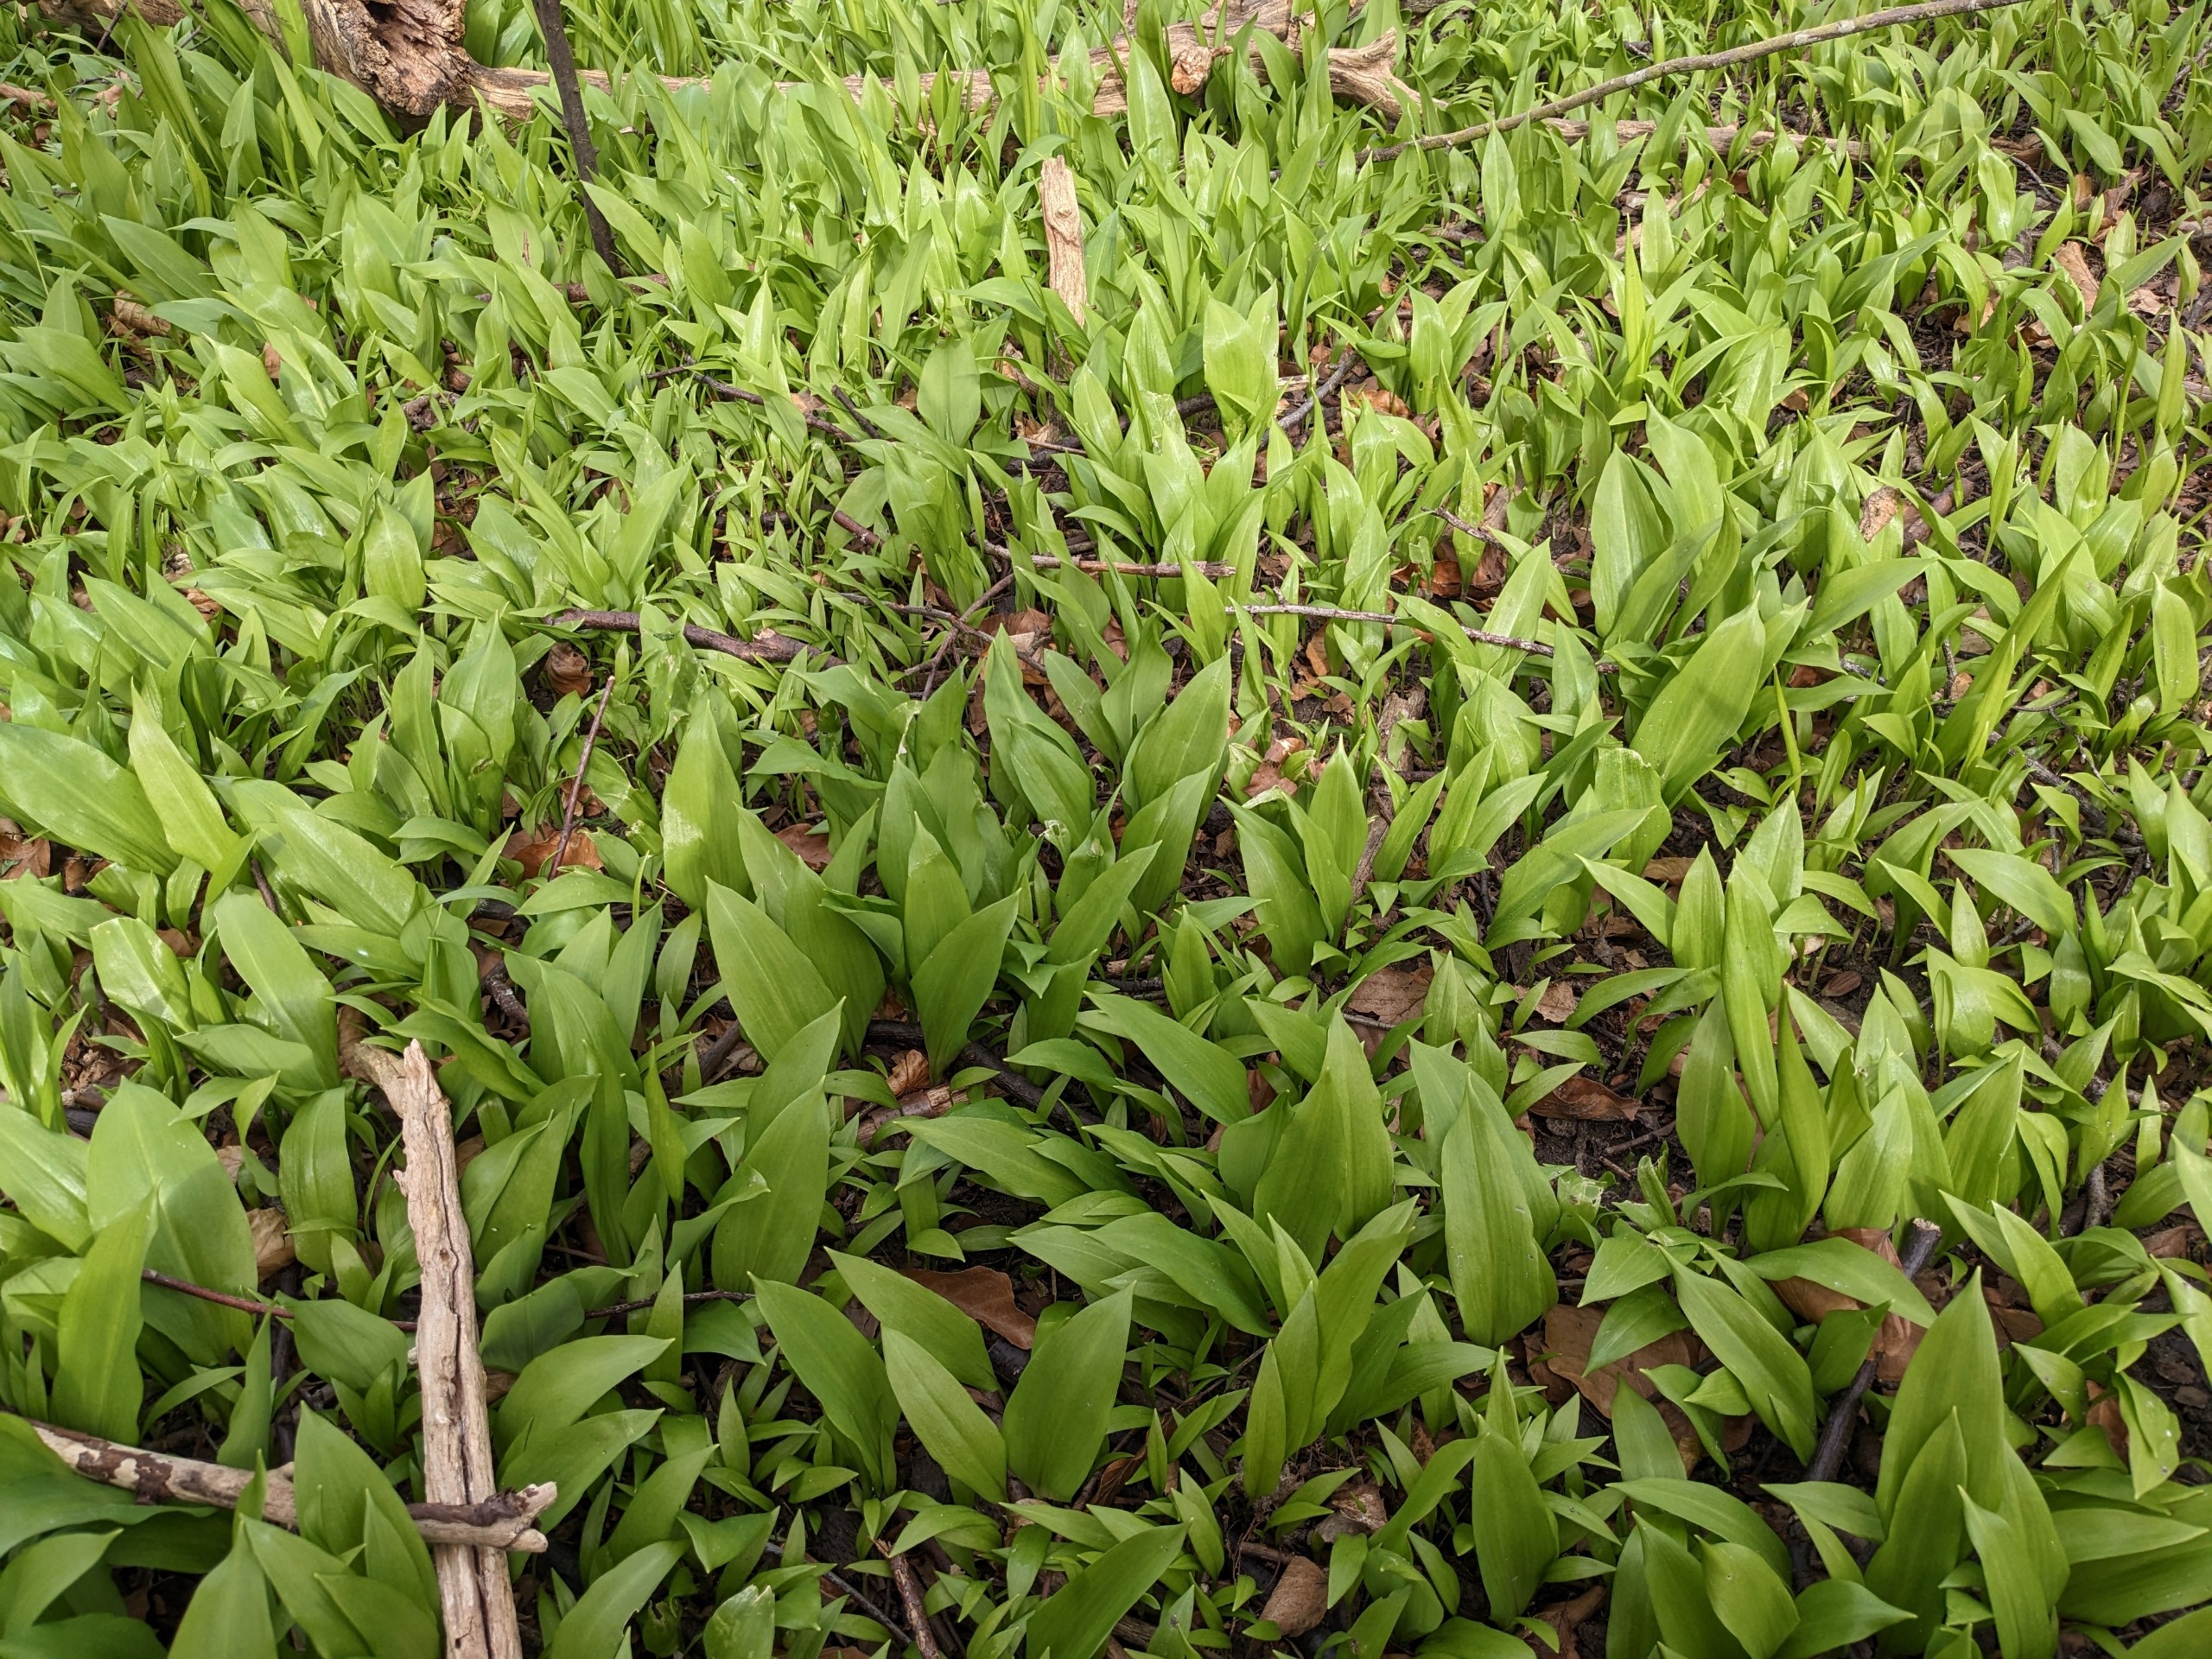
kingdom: Plantae
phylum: Tracheophyta
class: Liliopsida
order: Asparagales
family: Amaryllidaceae
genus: Allium
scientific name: Allium ursinum
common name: Rams-løg
